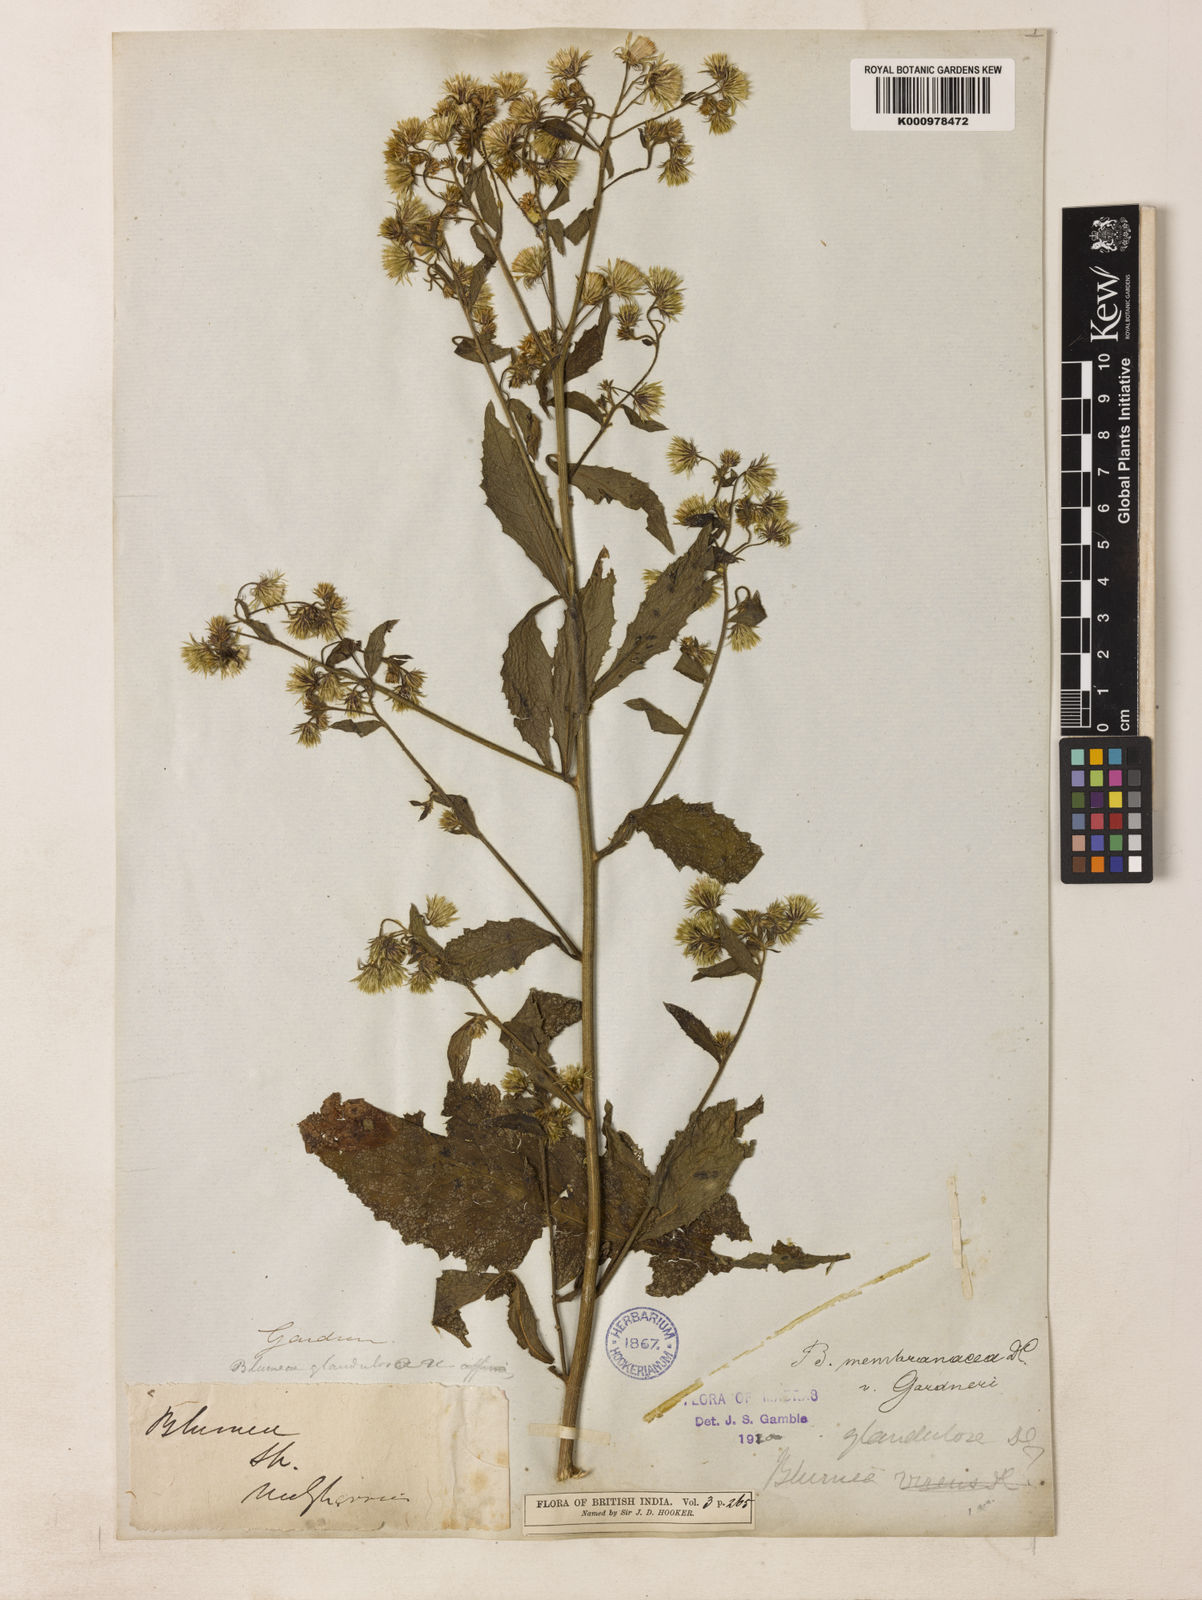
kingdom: Plantae
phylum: Tracheophyta
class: Magnoliopsida
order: Asterales
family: Asteraceae
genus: Blumea
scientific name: Blumea
